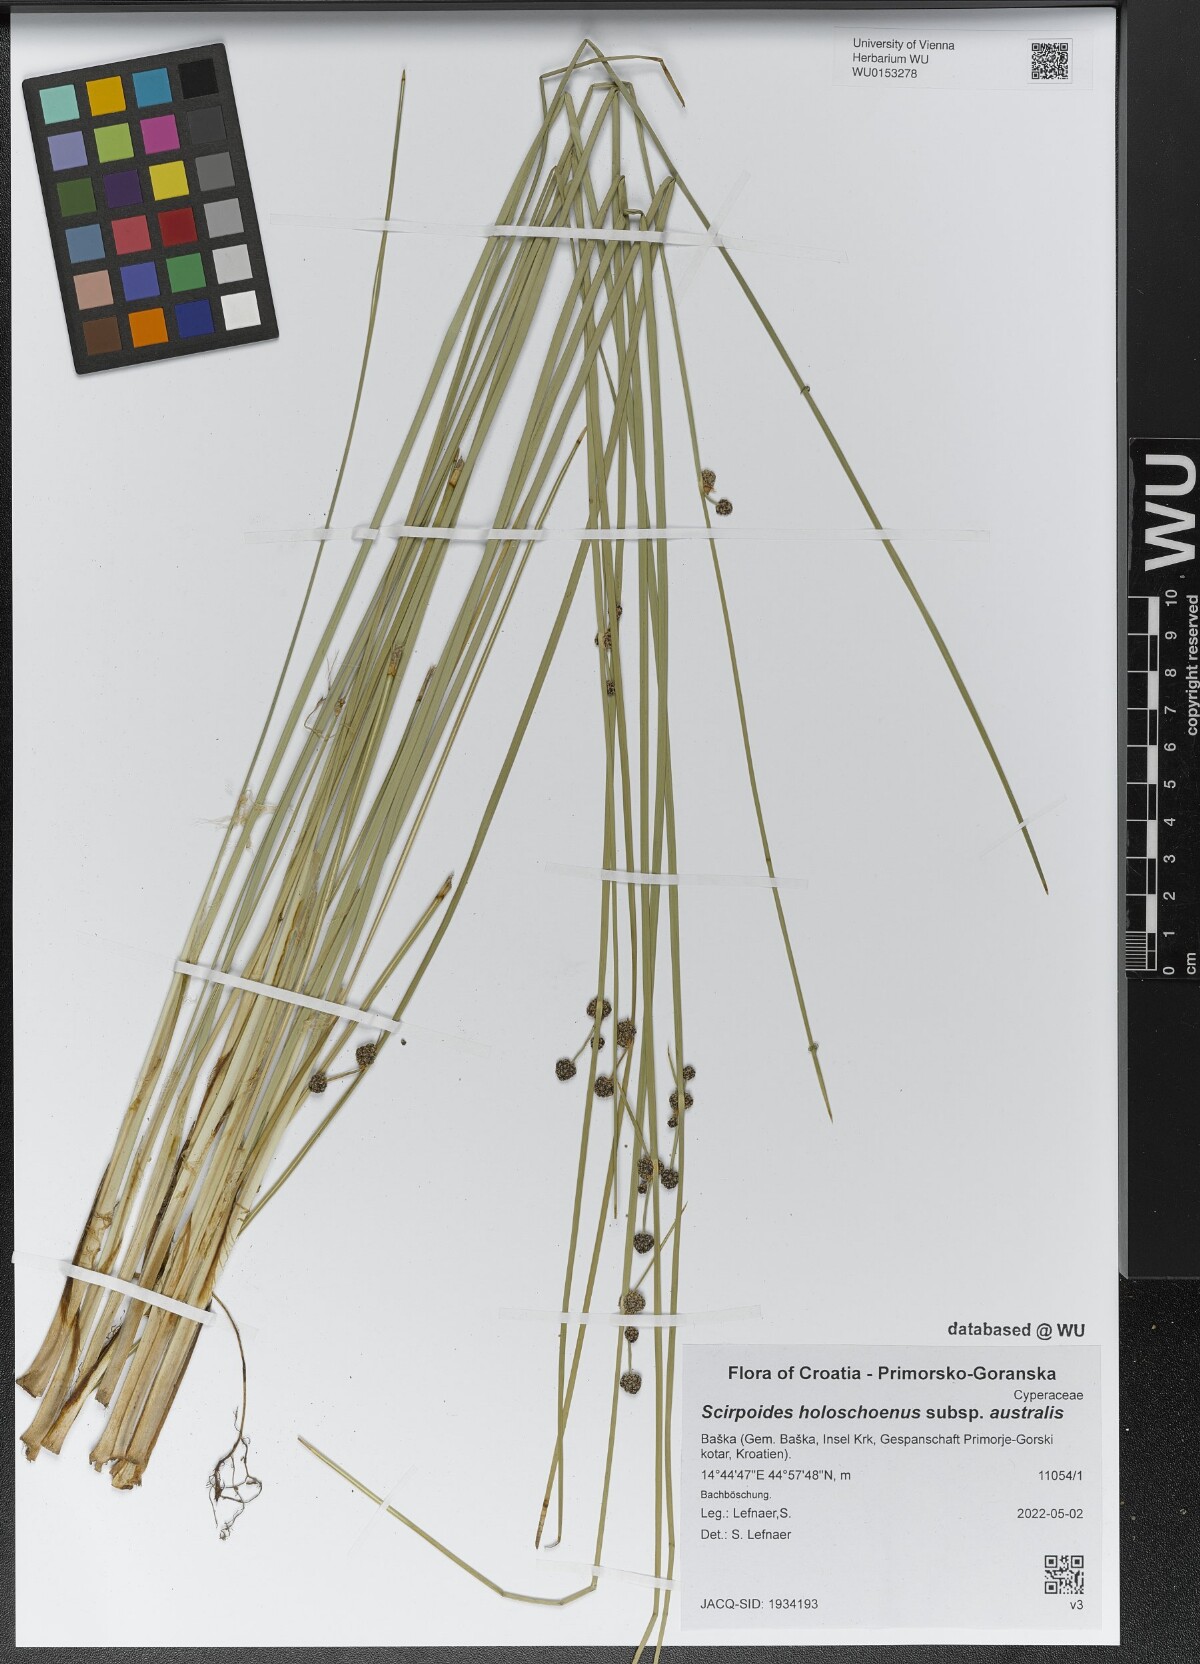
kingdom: Plantae
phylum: Tracheophyta
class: Liliopsida
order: Poales
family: Cyperaceae
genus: Scirpoides
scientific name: Scirpoides holoschoenus
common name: Round-headed club-rush
